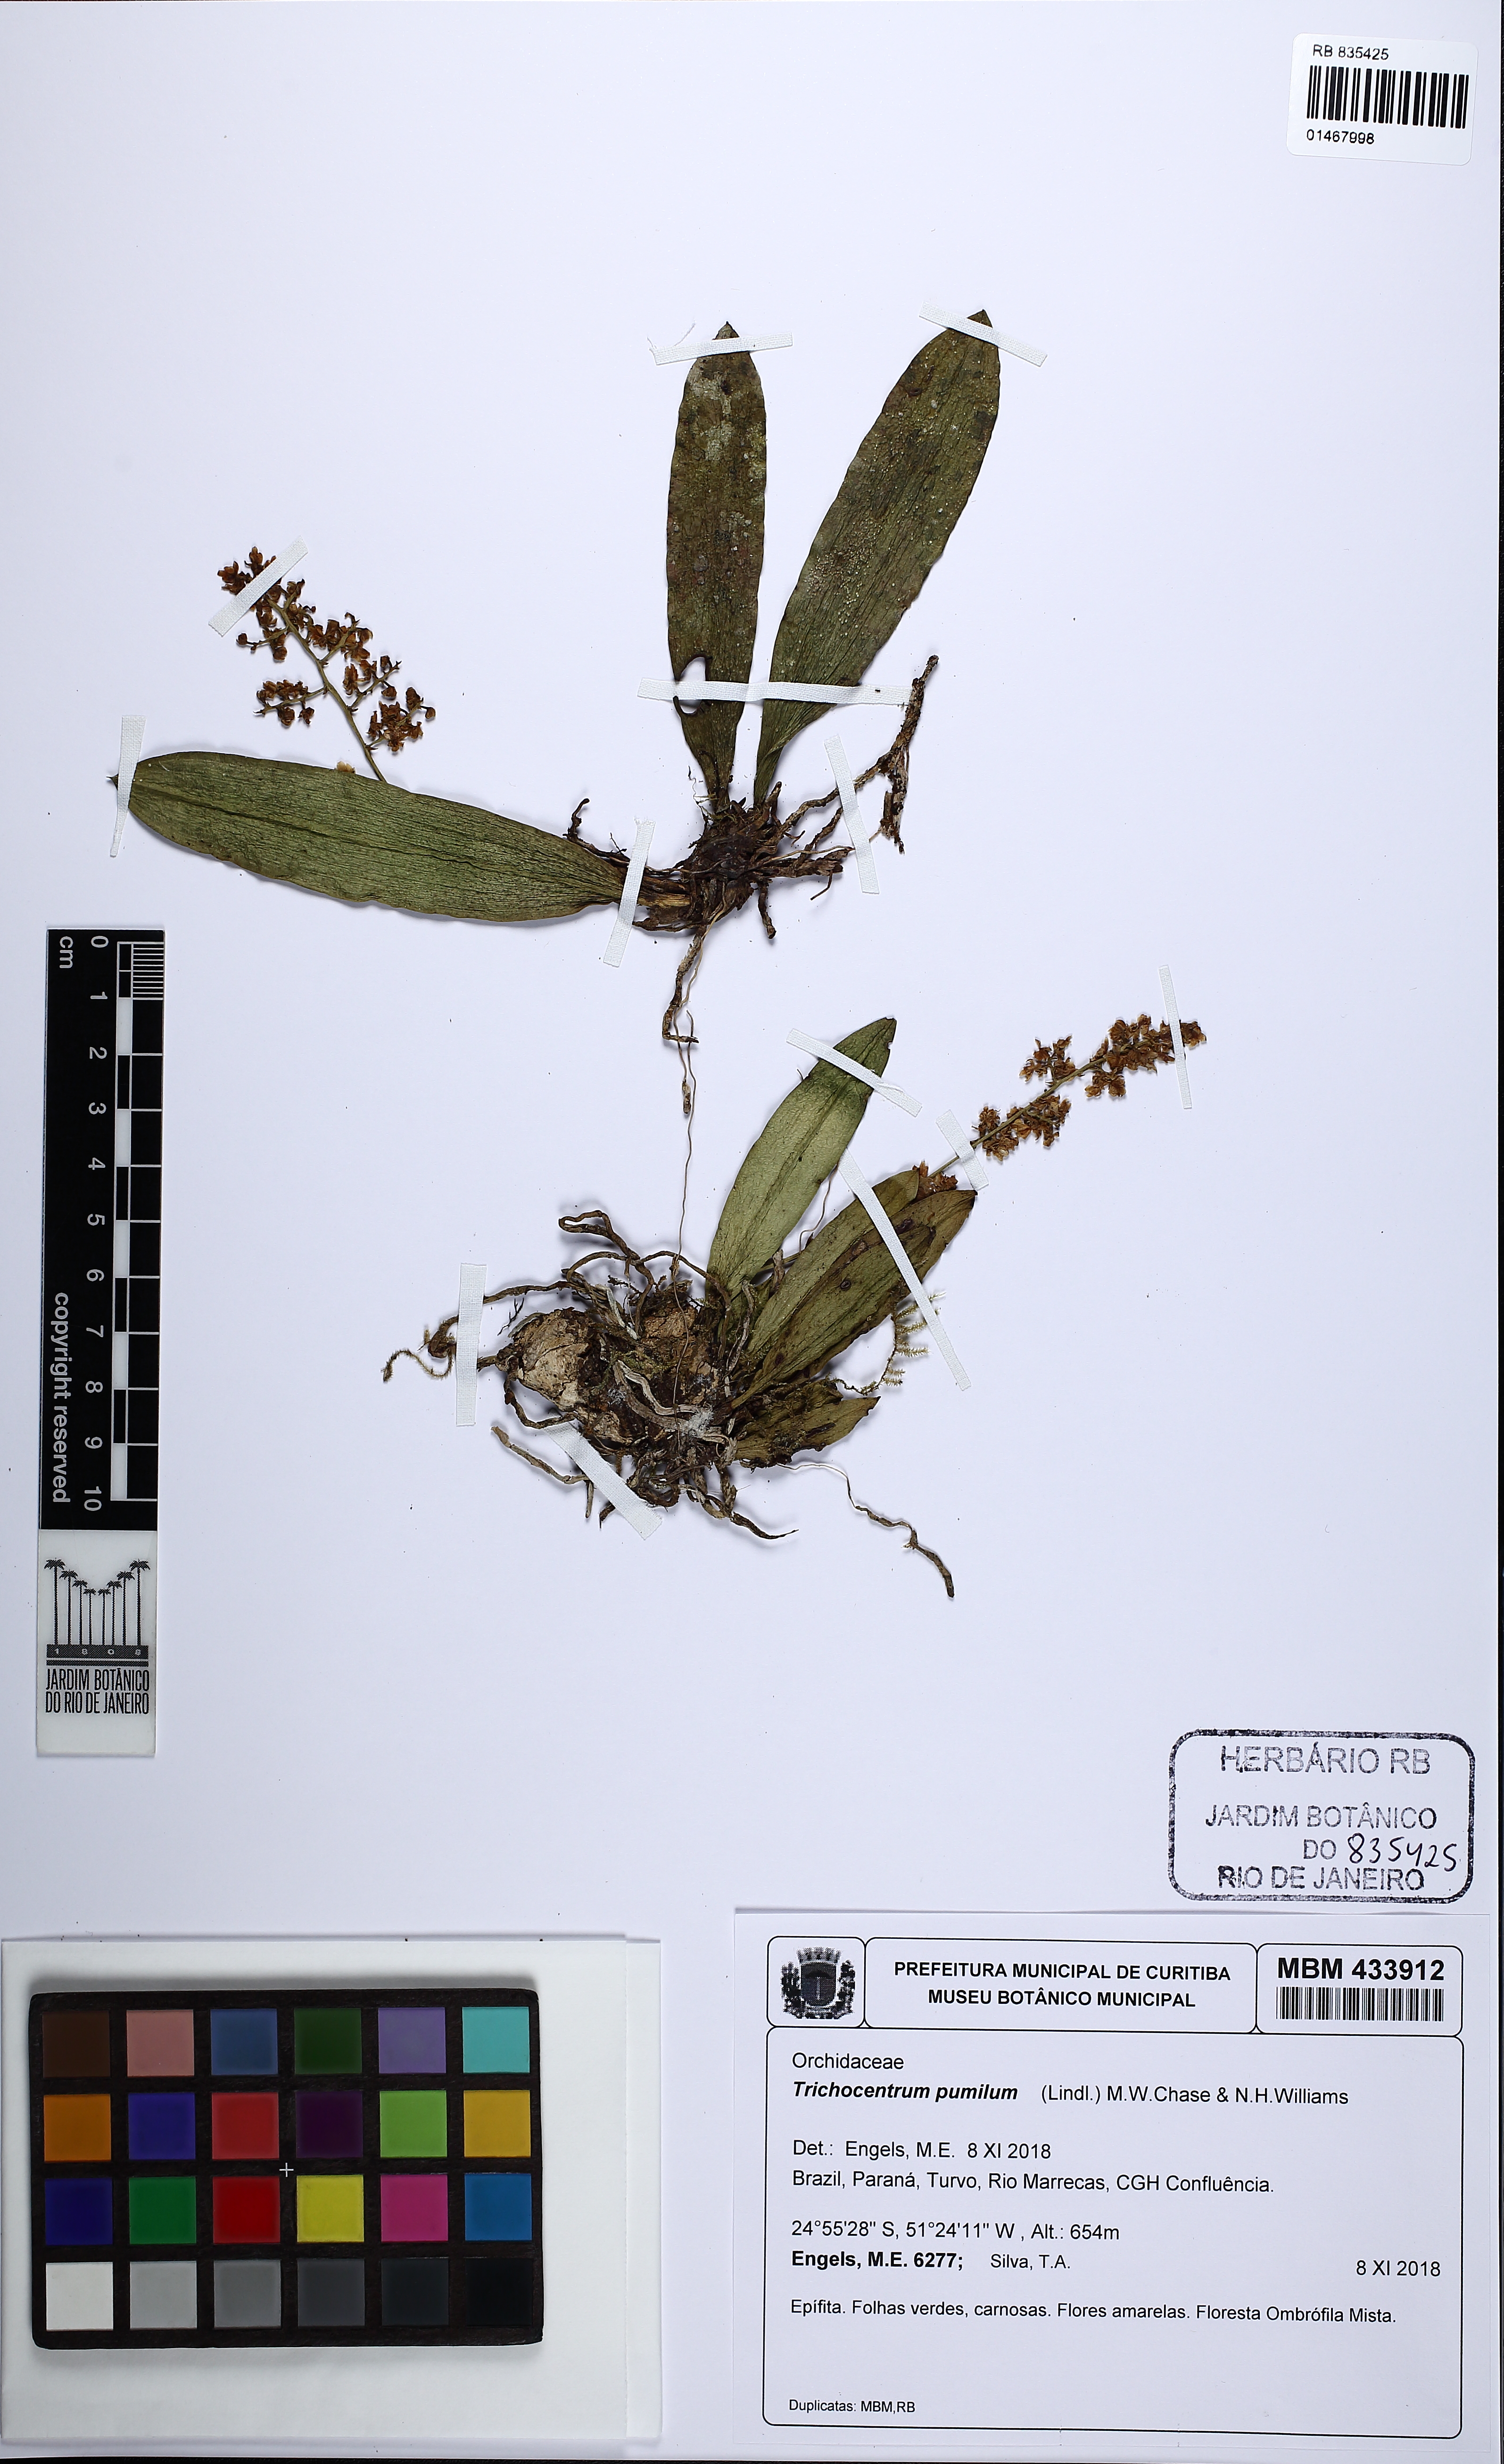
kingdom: Plantae
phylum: Tracheophyta
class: Liliopsida
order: Asparagales
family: Orchidaceae
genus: Trichocentrum
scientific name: Trichocentrum pumilum
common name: Mule-ear orchid
